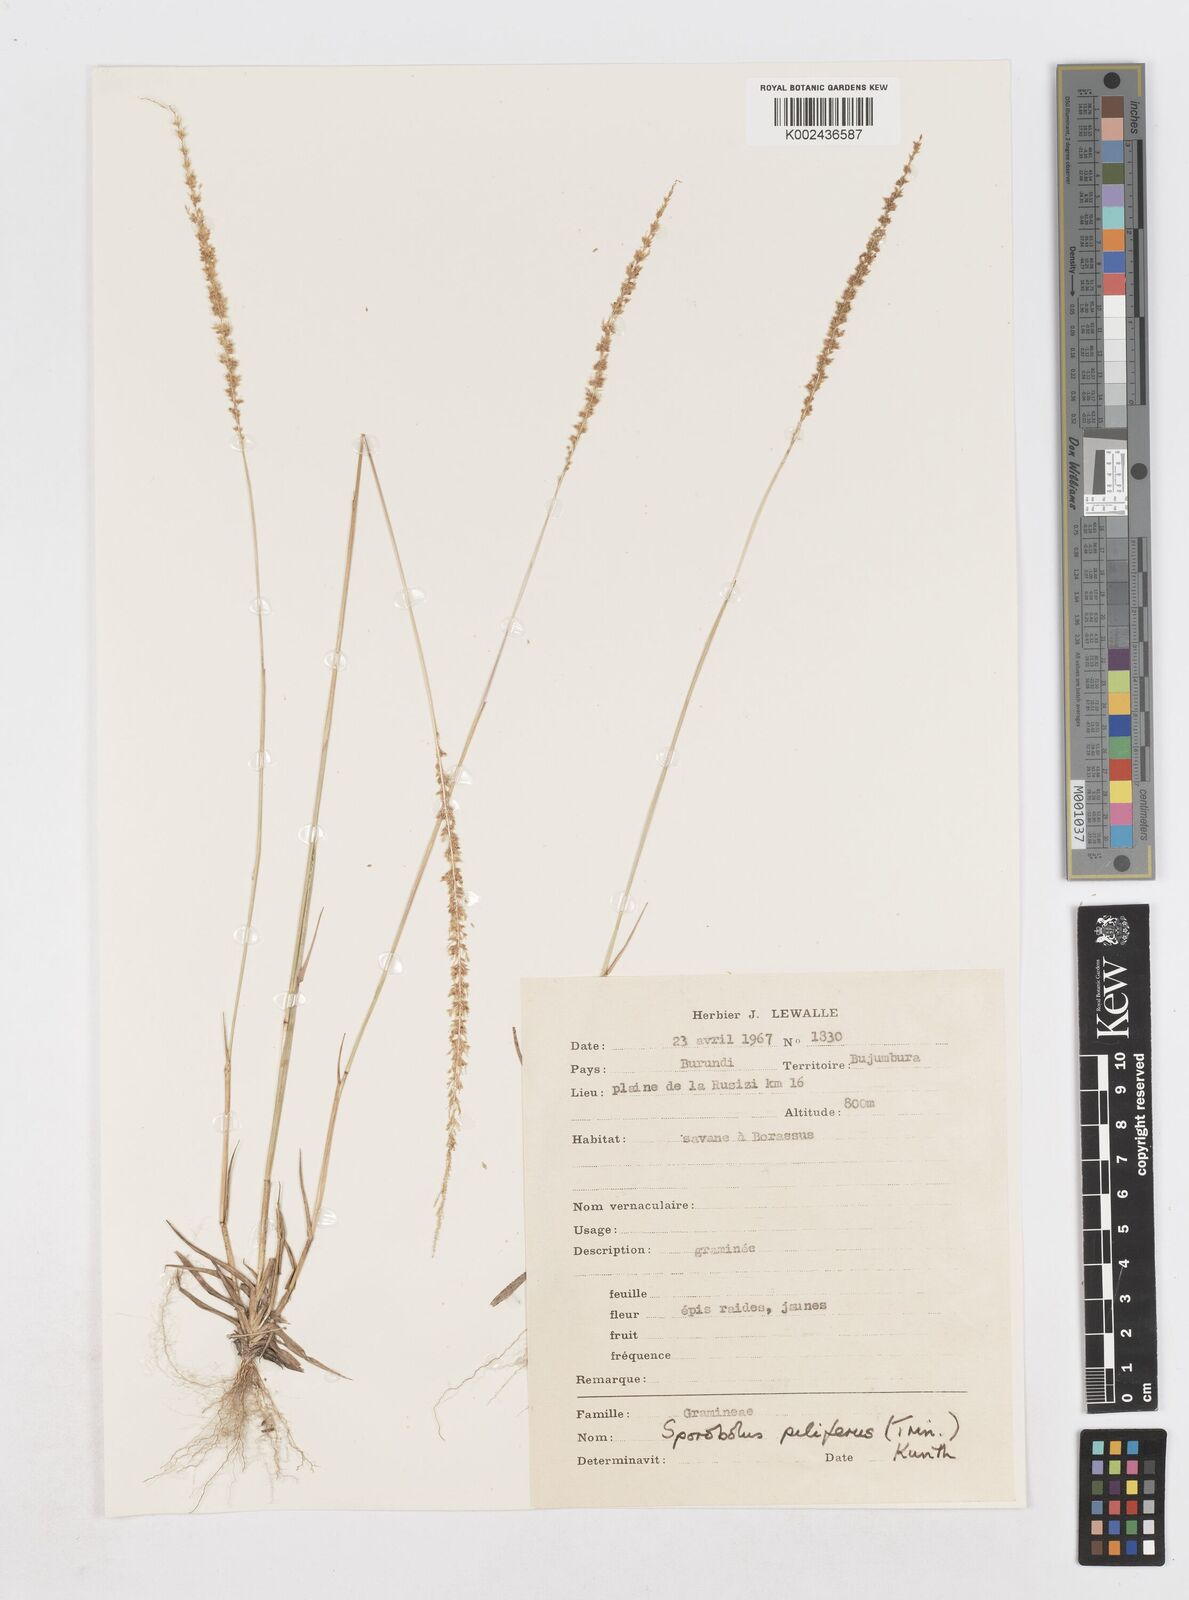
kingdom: Plantae
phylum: Tracheophyta
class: Liliopsida
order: Poales
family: Poaceae
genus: Sporobolus
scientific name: Sporobolus pilifer
